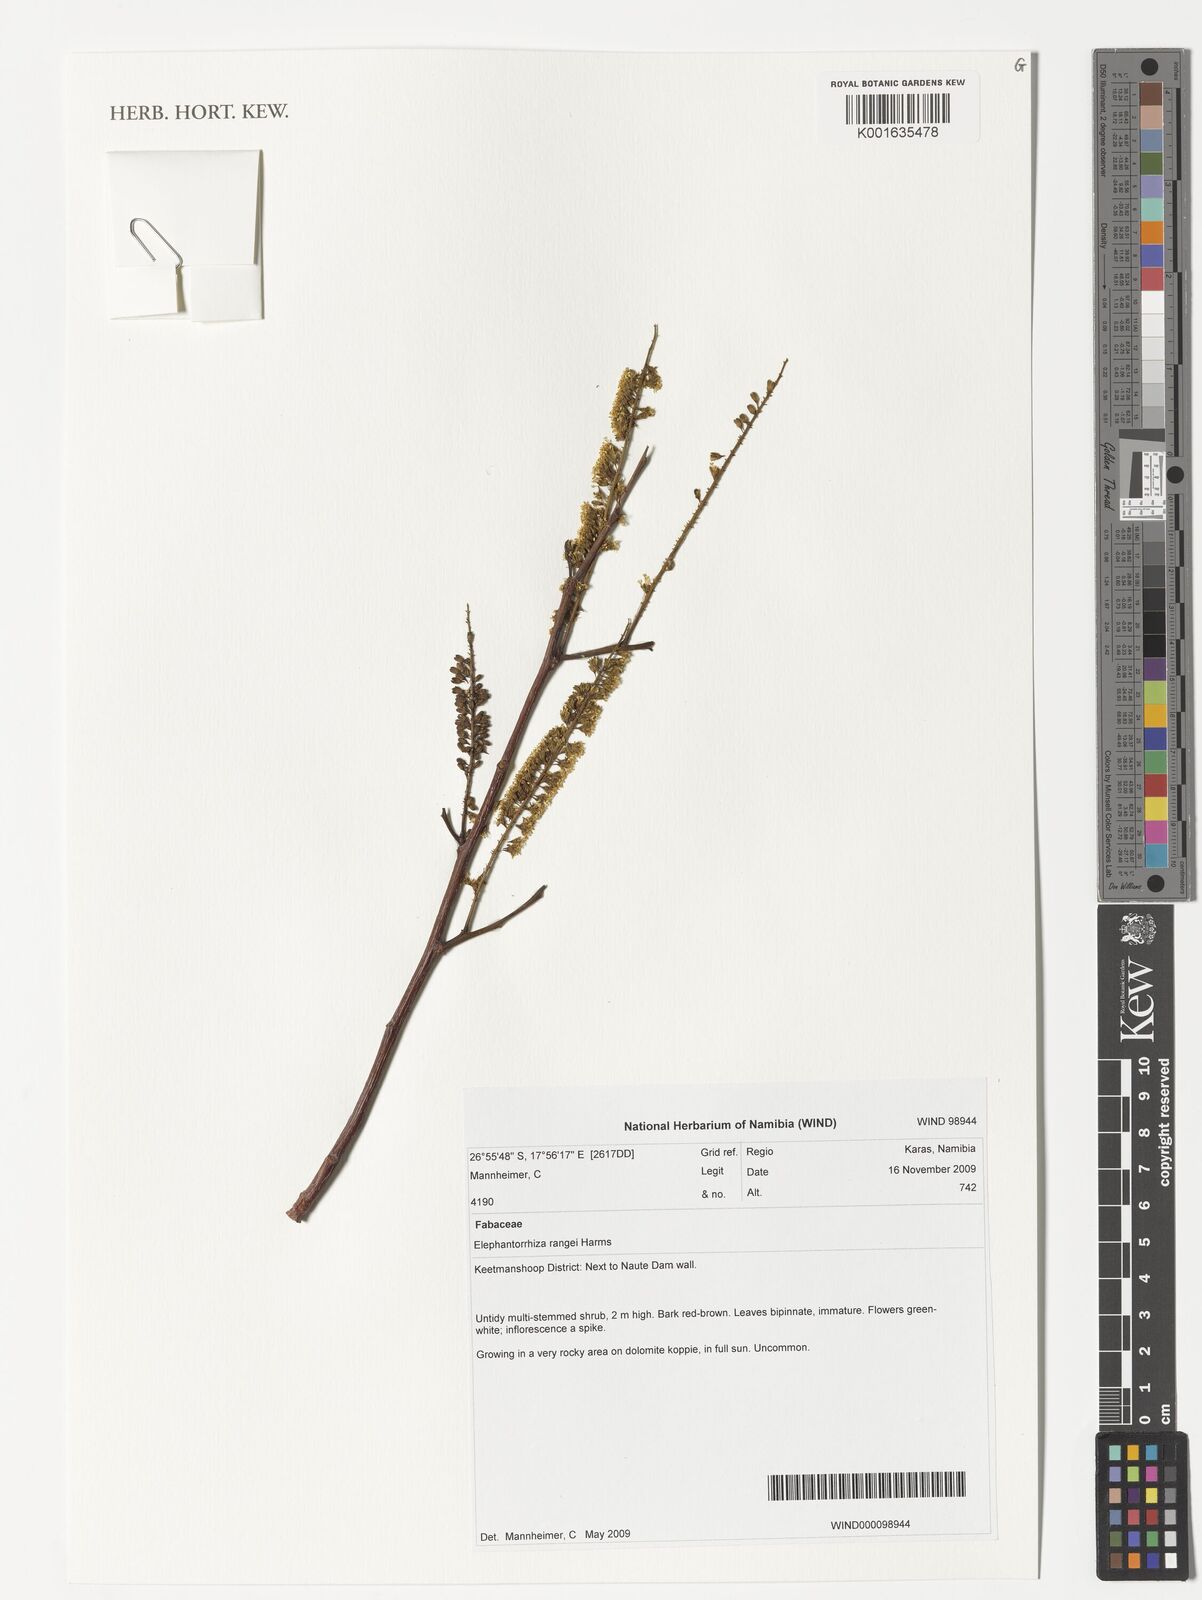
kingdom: Plantae
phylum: Tracheophyta
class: Magnoliopsida
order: Fabales
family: Fabaceae
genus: Elephantorrhiza
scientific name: Elephantorrhiza suffruticosa
